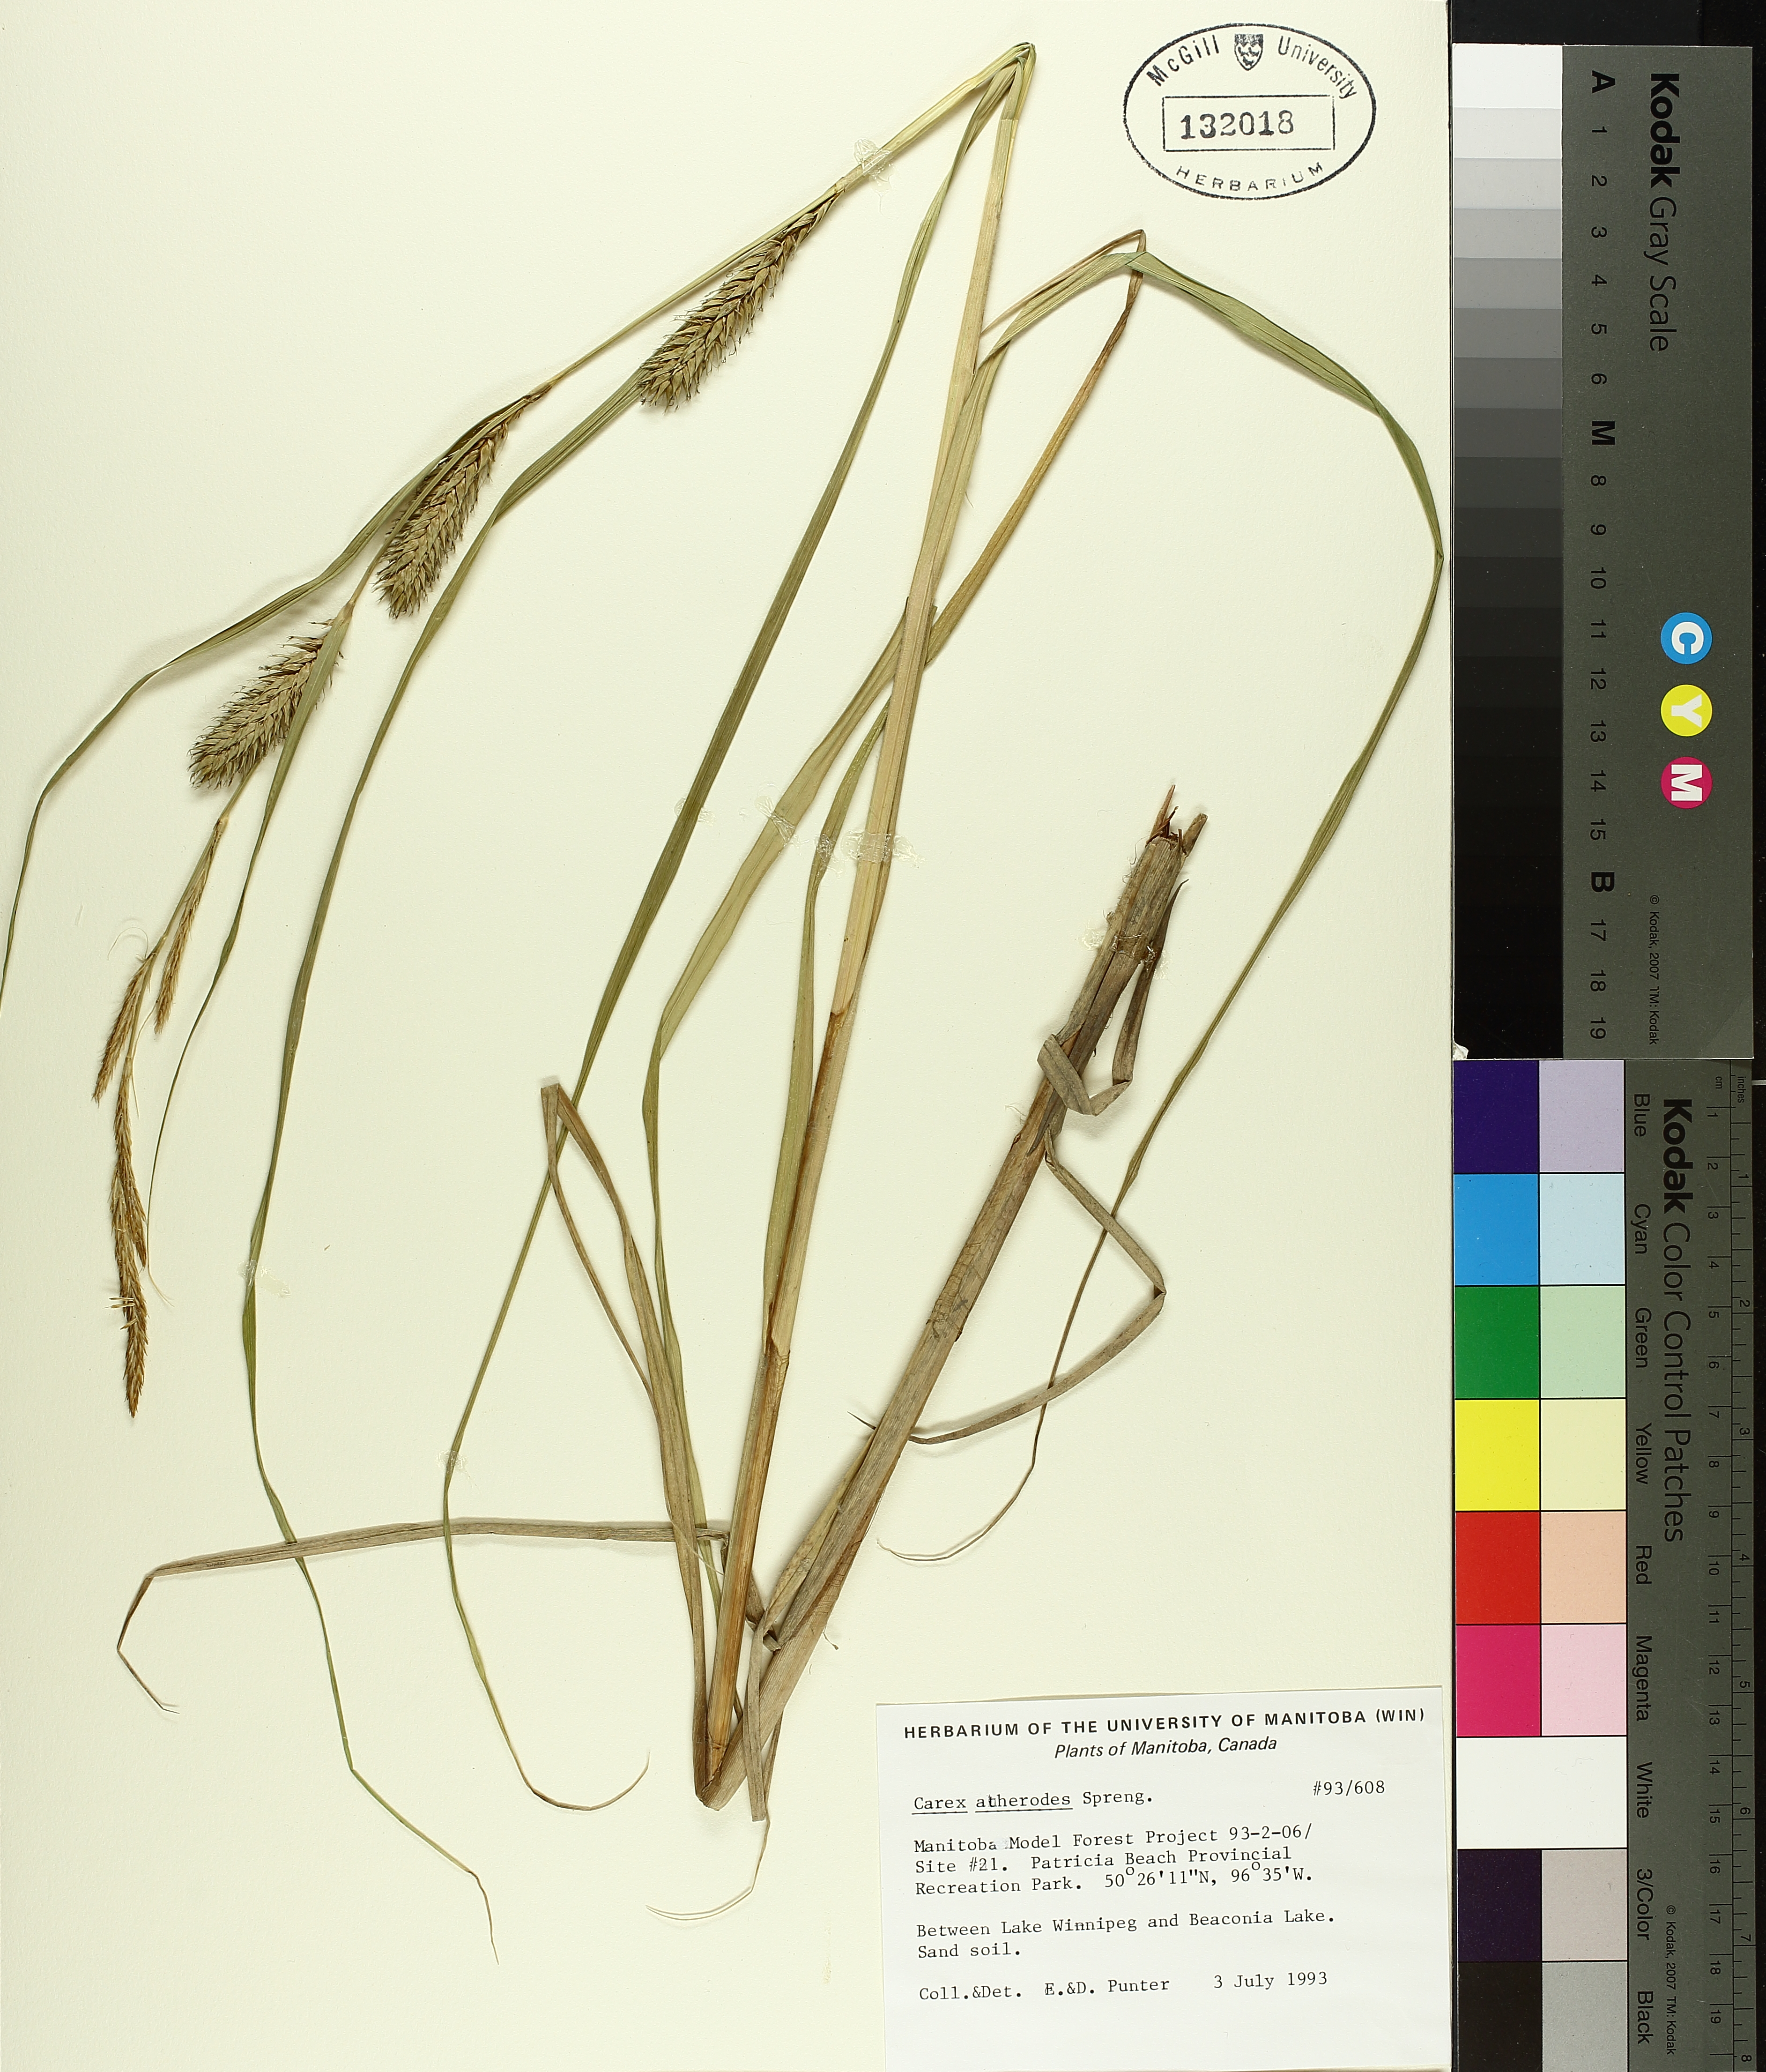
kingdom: Plantae
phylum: Tracheophyta
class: Liliopsida
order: Poales
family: Cyperaceae
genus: Carex
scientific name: Carex atherodes
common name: Wheat sedge
